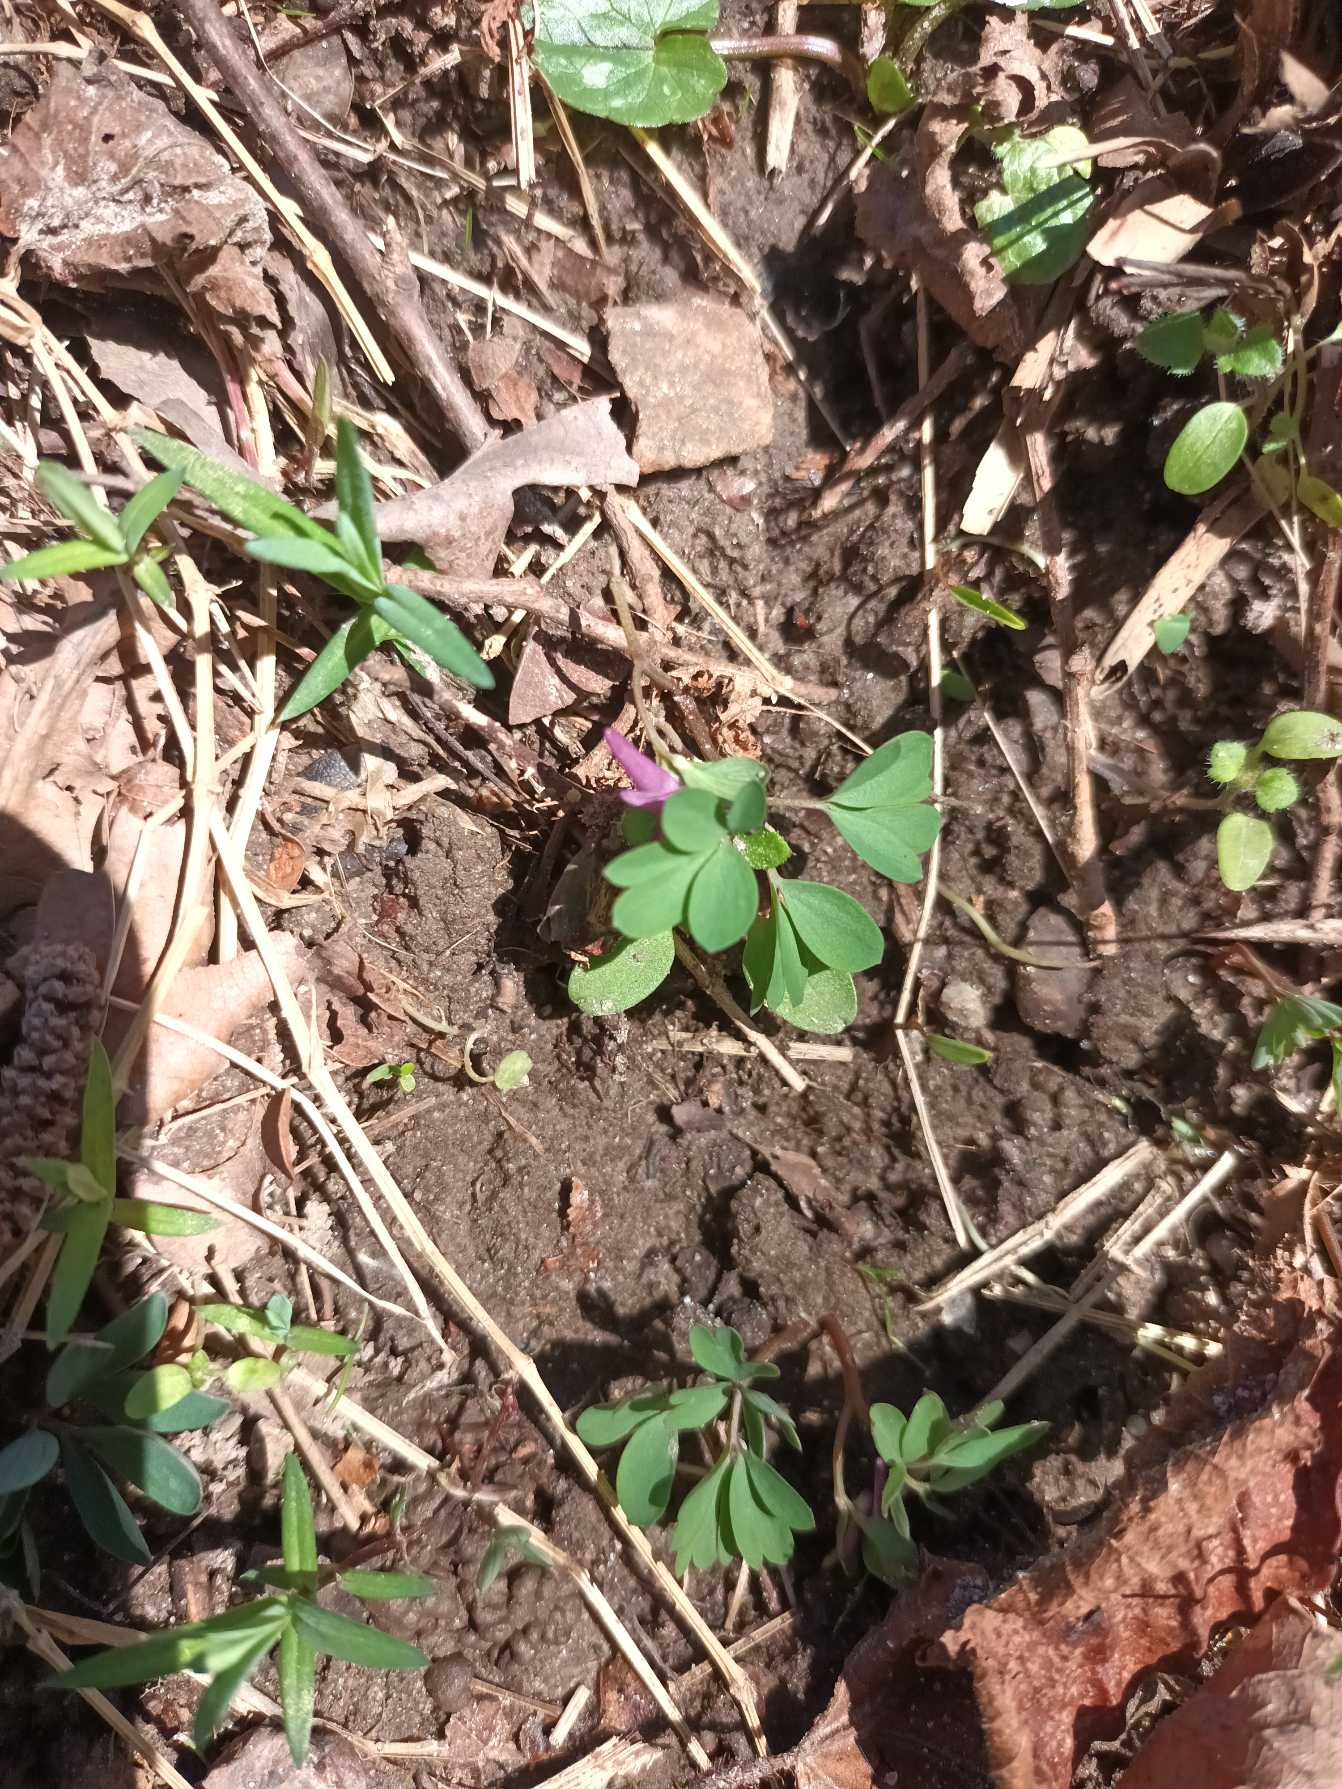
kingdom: Plantae
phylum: Tracheophyta
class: Magnoliopsida
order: Ranunculales
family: Papaveraceae
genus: Corydalis
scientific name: Corydalis intermedia
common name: Liden lærkespore
